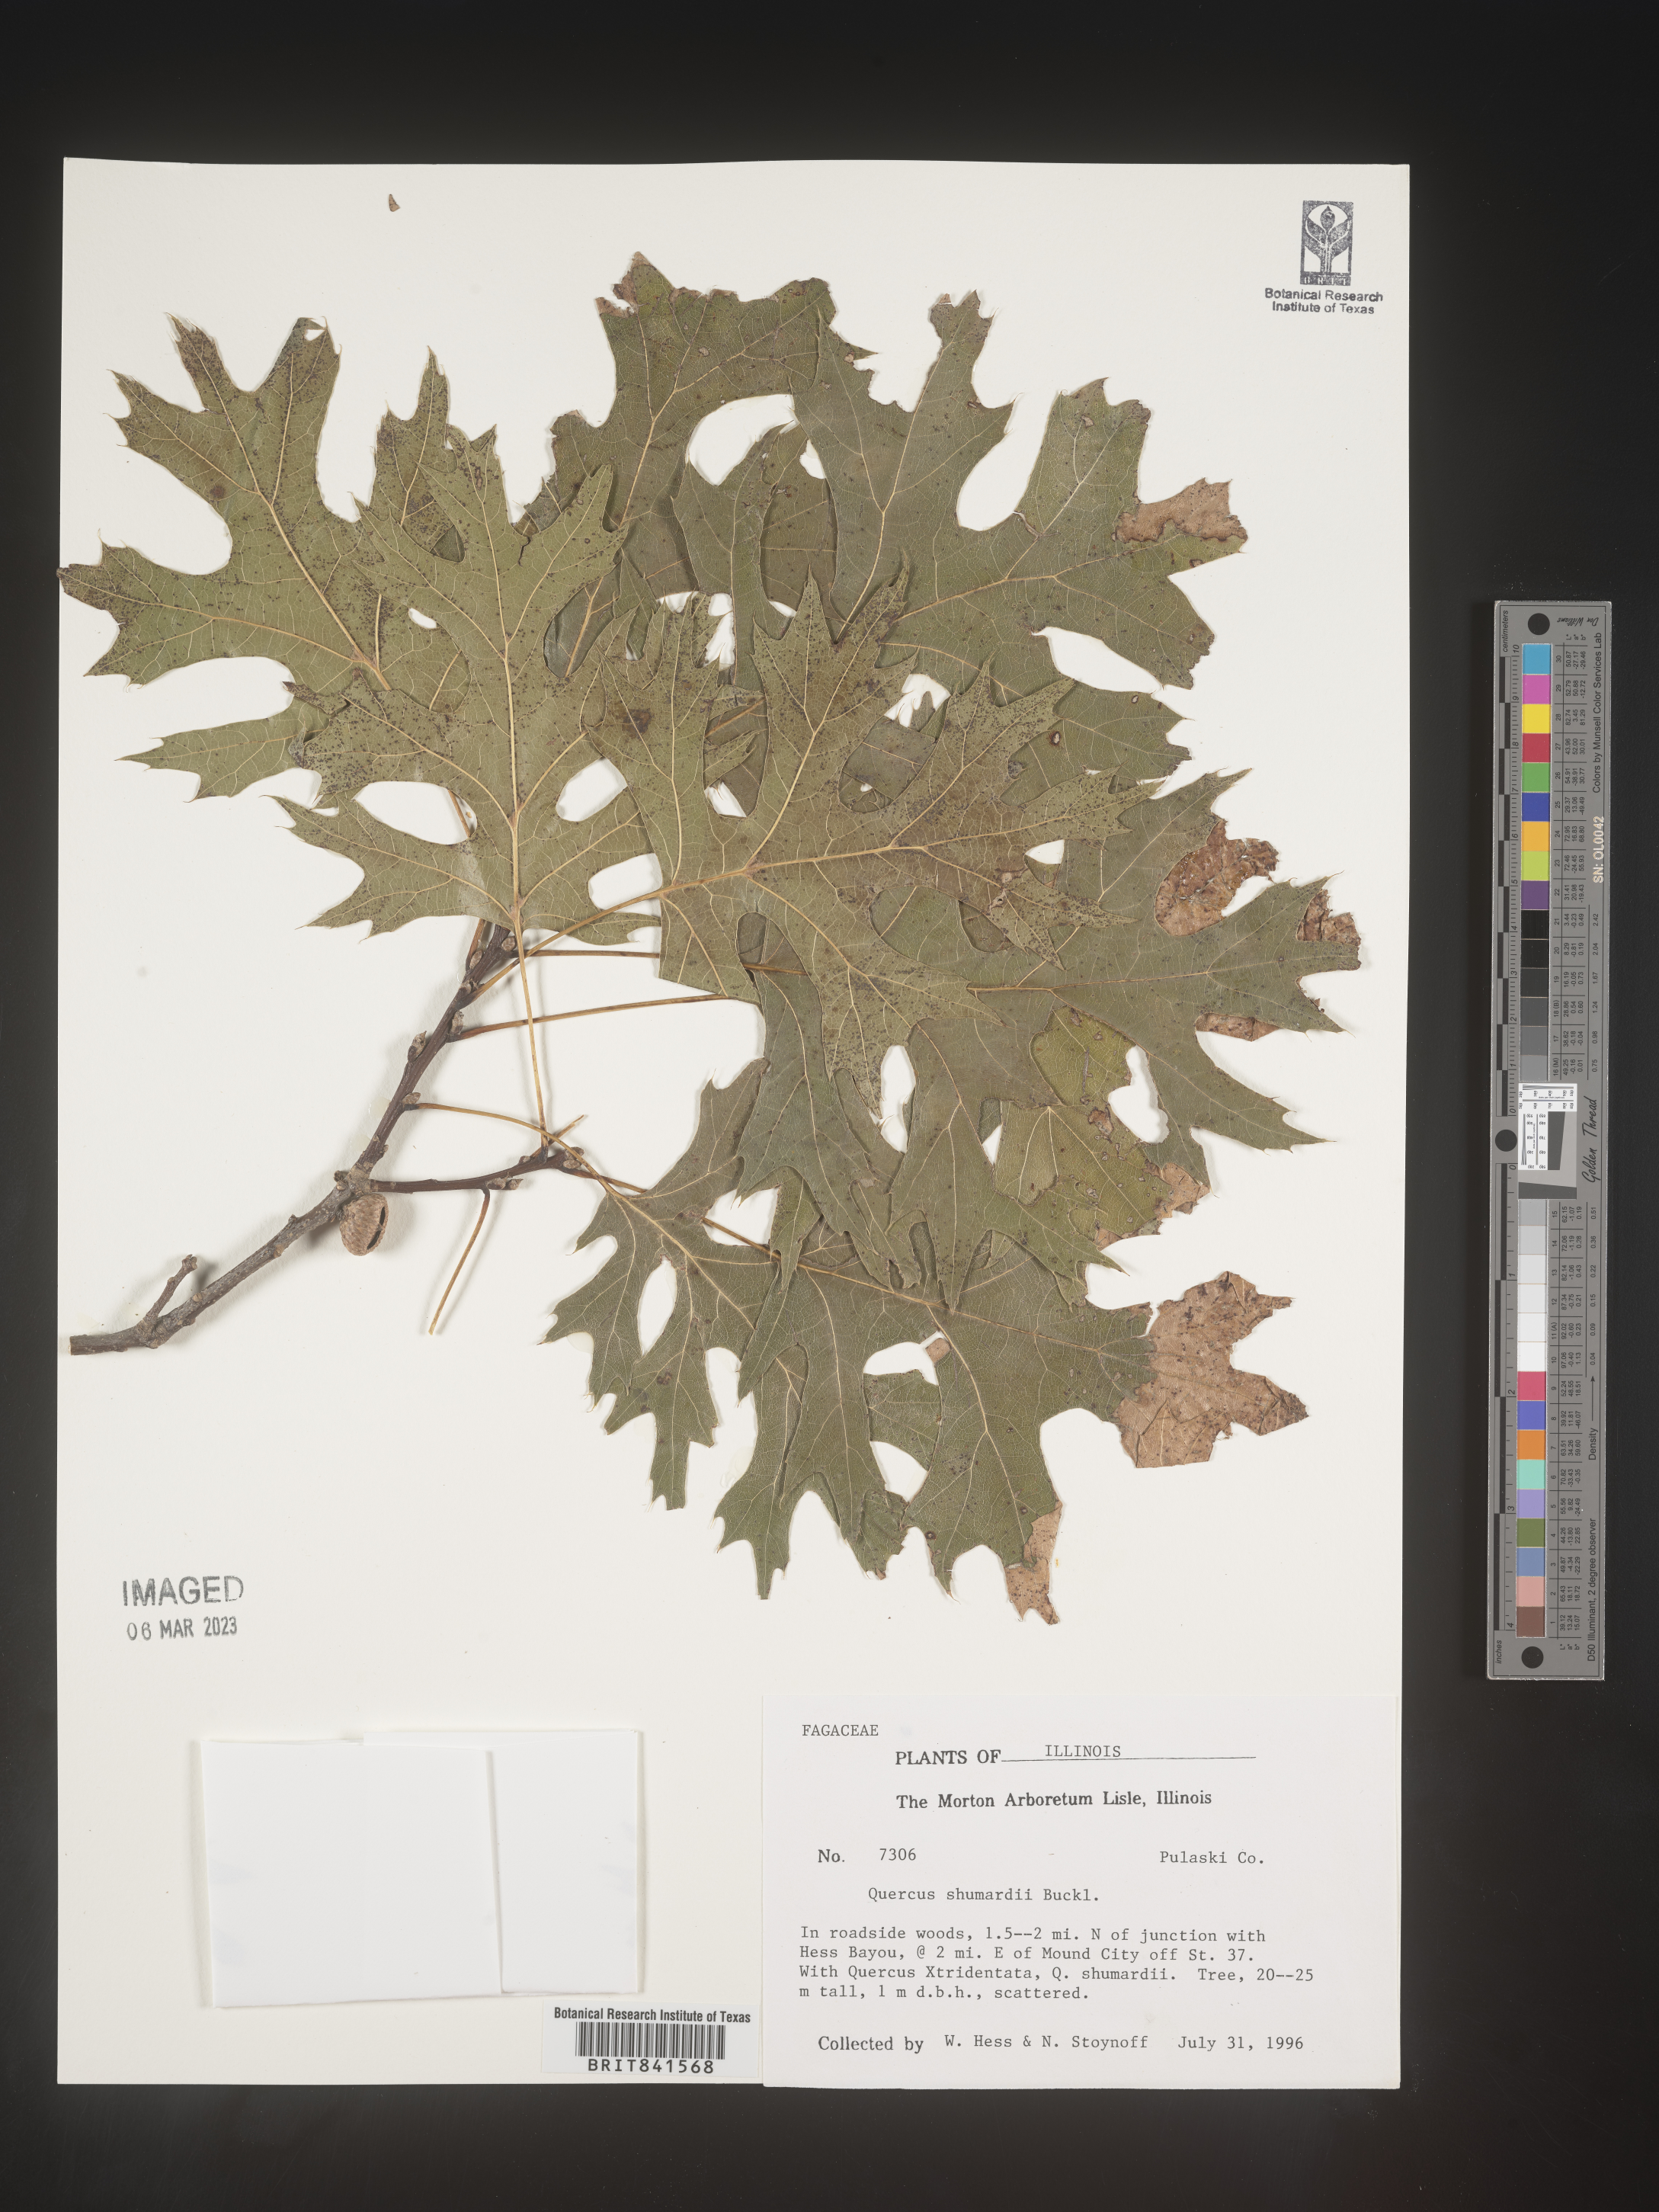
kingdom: Plantae
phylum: Tracheophyta
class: Magnoliopsida
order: Fagales
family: Fagaceae
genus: Quercus
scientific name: Quercus shumardii
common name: Shumard oak
